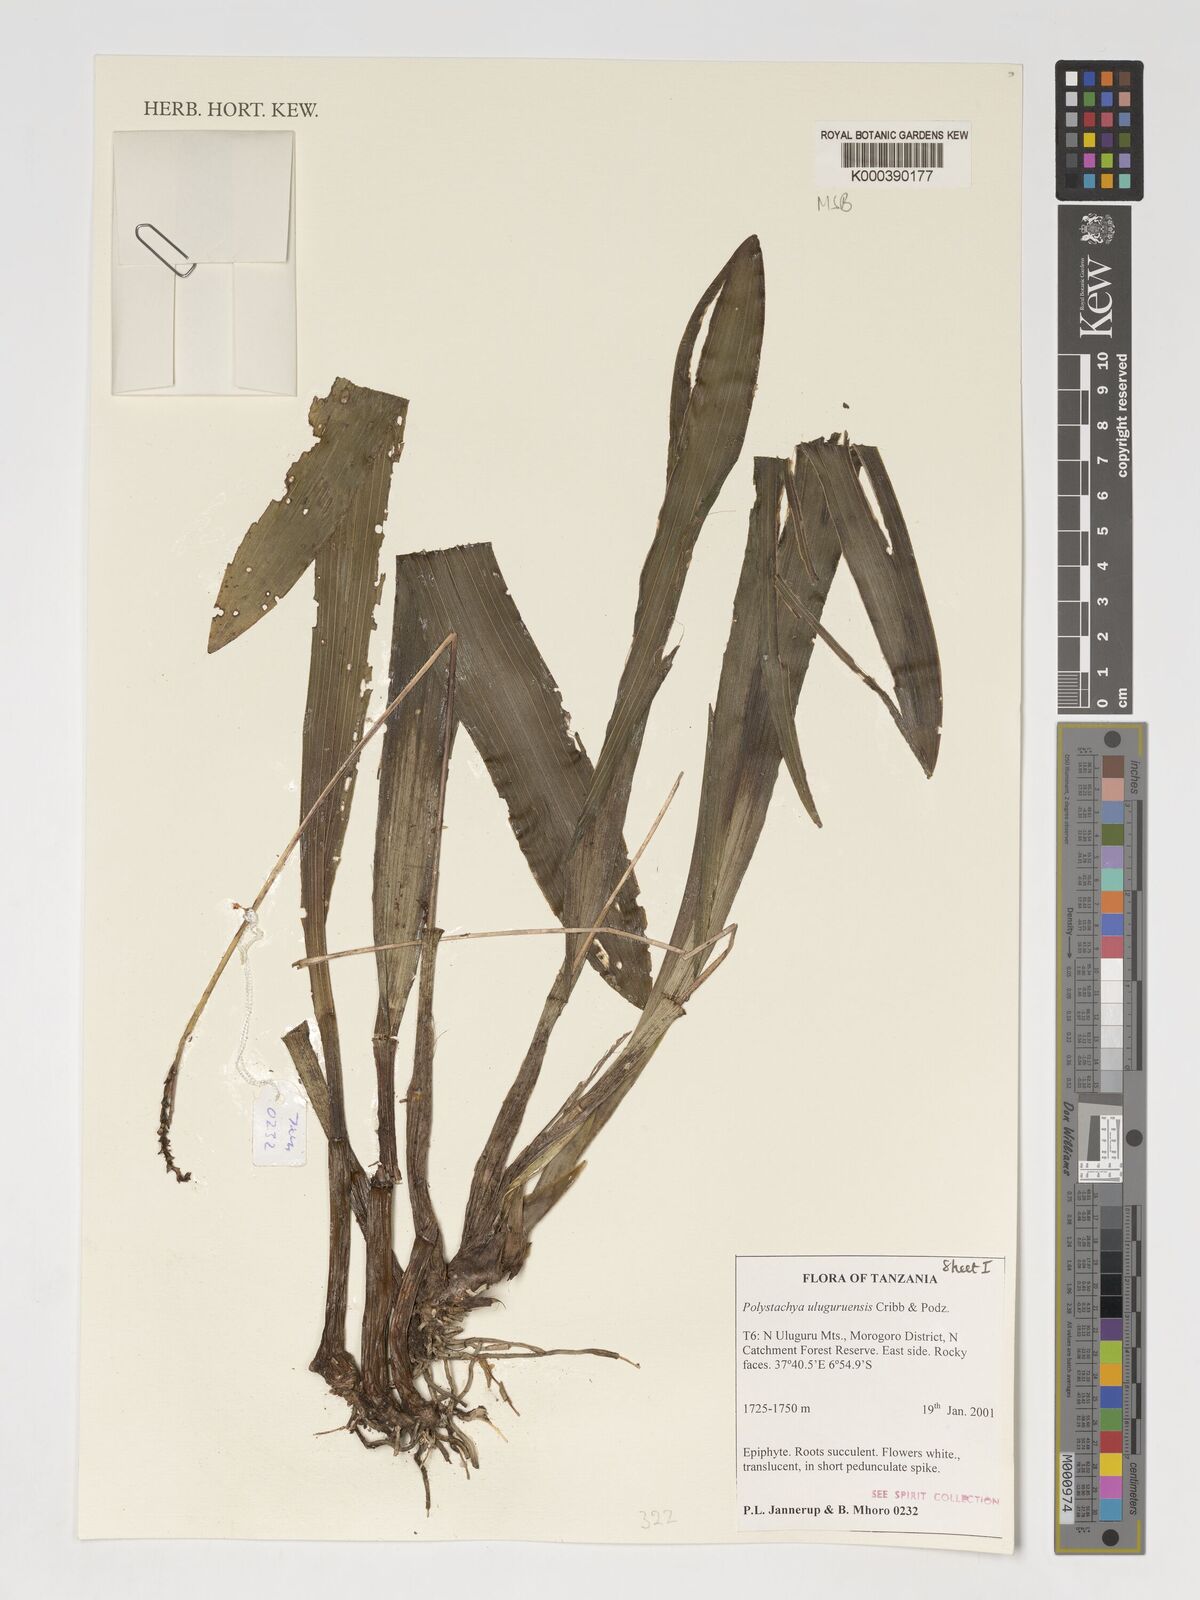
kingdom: Plantae
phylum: Tracheophyta
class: Liliopsida
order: Asparagales
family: Orchidaceae
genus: Polystachya
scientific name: Polystachya uluguruensis
